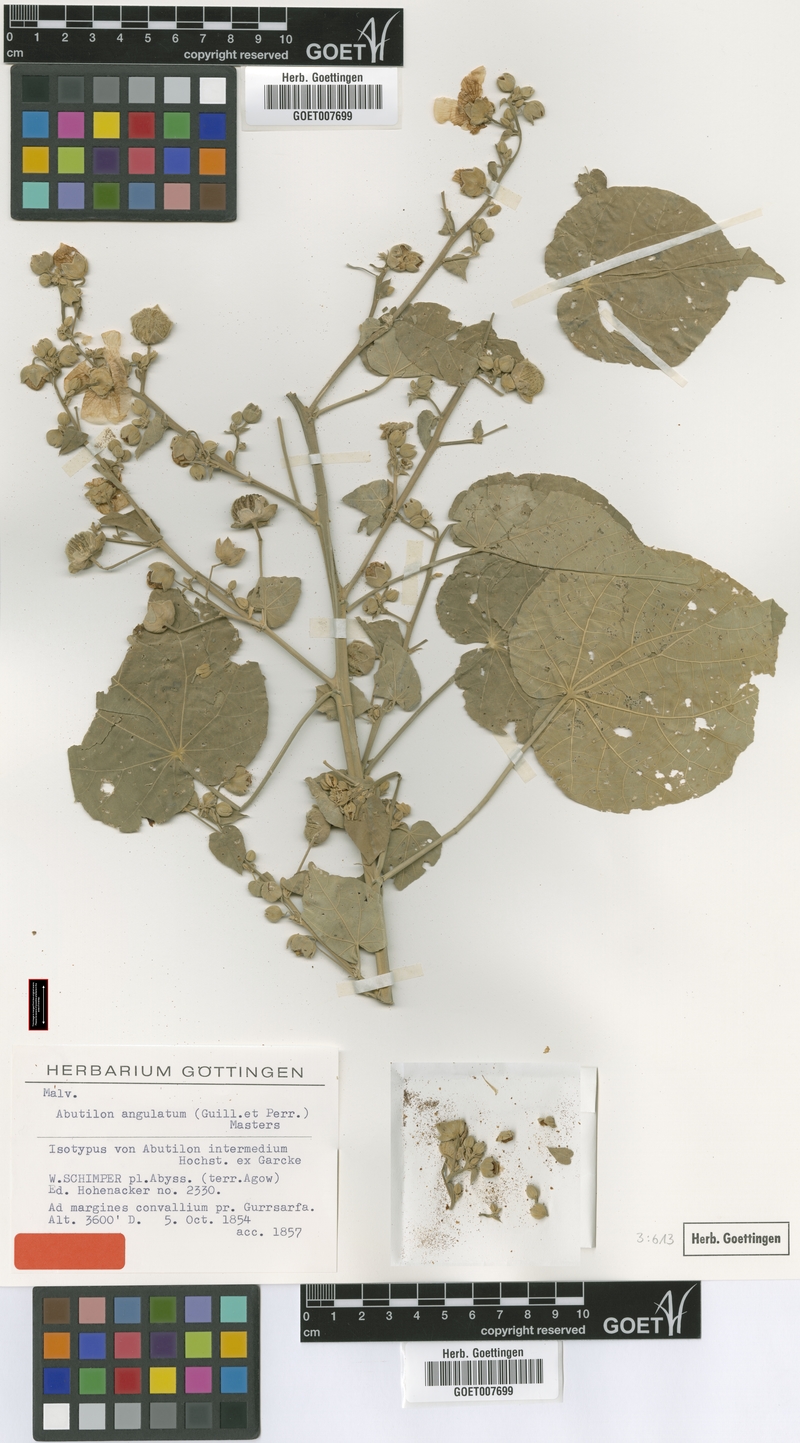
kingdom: Plantae
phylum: Tracheophyta
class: Magnoliopsida
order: Malvales
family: Malvaceae
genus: Abutilon
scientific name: Abutilon angulatum
